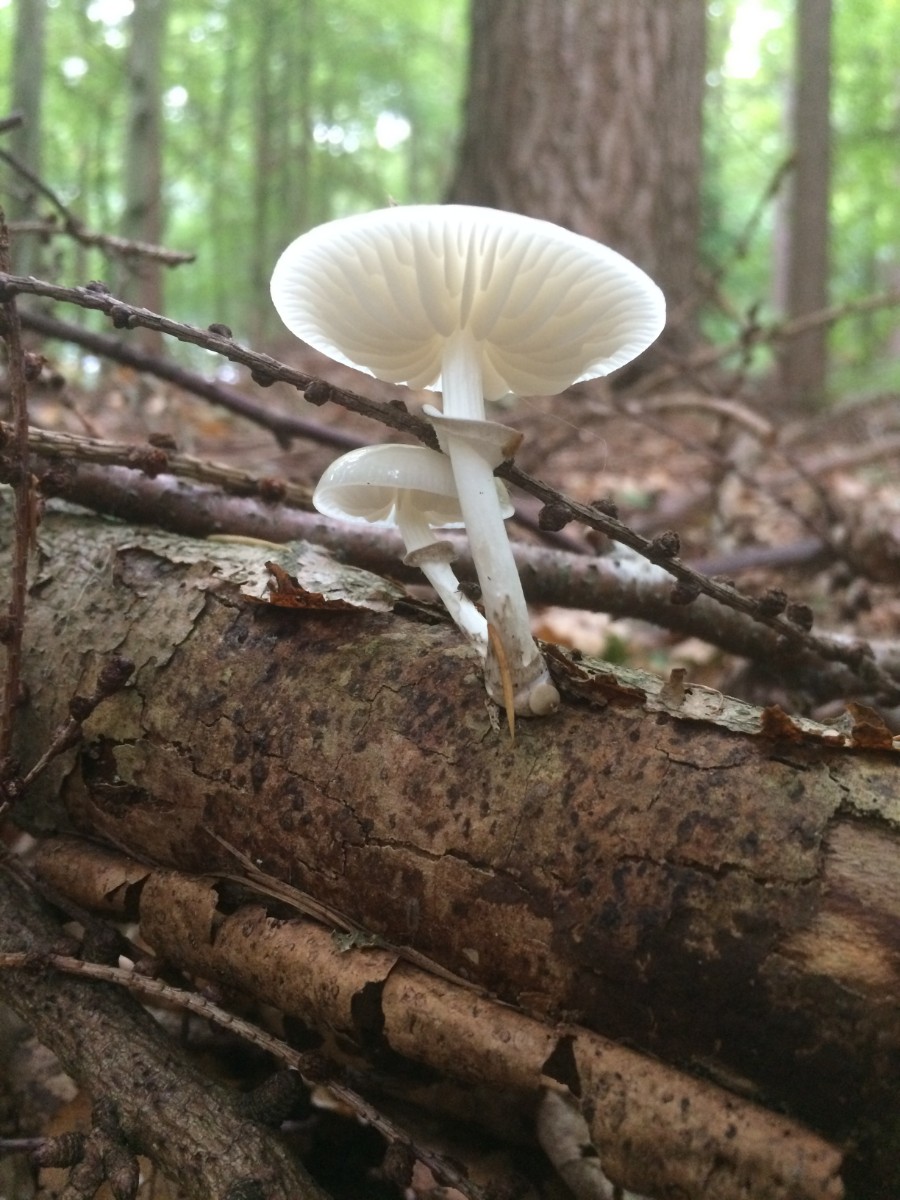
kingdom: Fungi
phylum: Basidiomycota
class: Agaricomycetes
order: Agaricales
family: Physalacriaceae
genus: Mucidula
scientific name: Mucidula mucida
